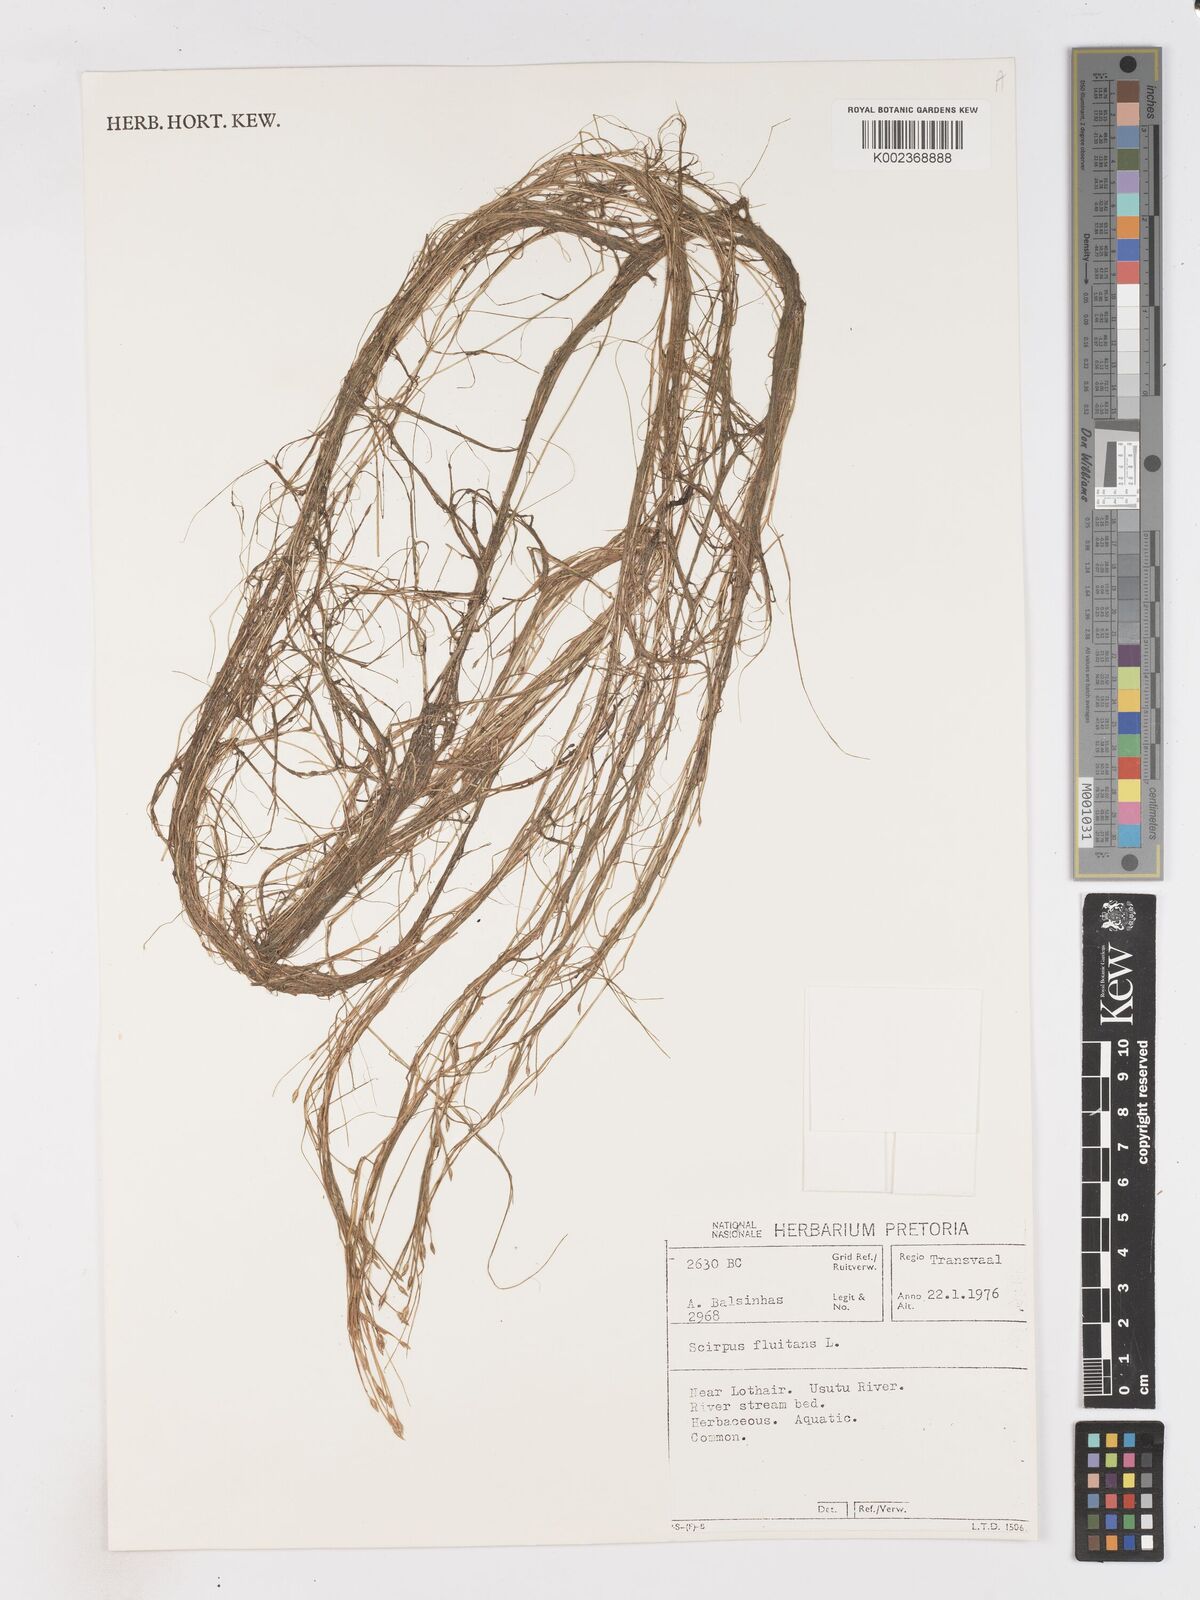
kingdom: Plantae
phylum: Tracheophyta
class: Liliopsida
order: Poales
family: Cyperaceae
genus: Isolepis
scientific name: Isolepis fluitans
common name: Floating club-rush
